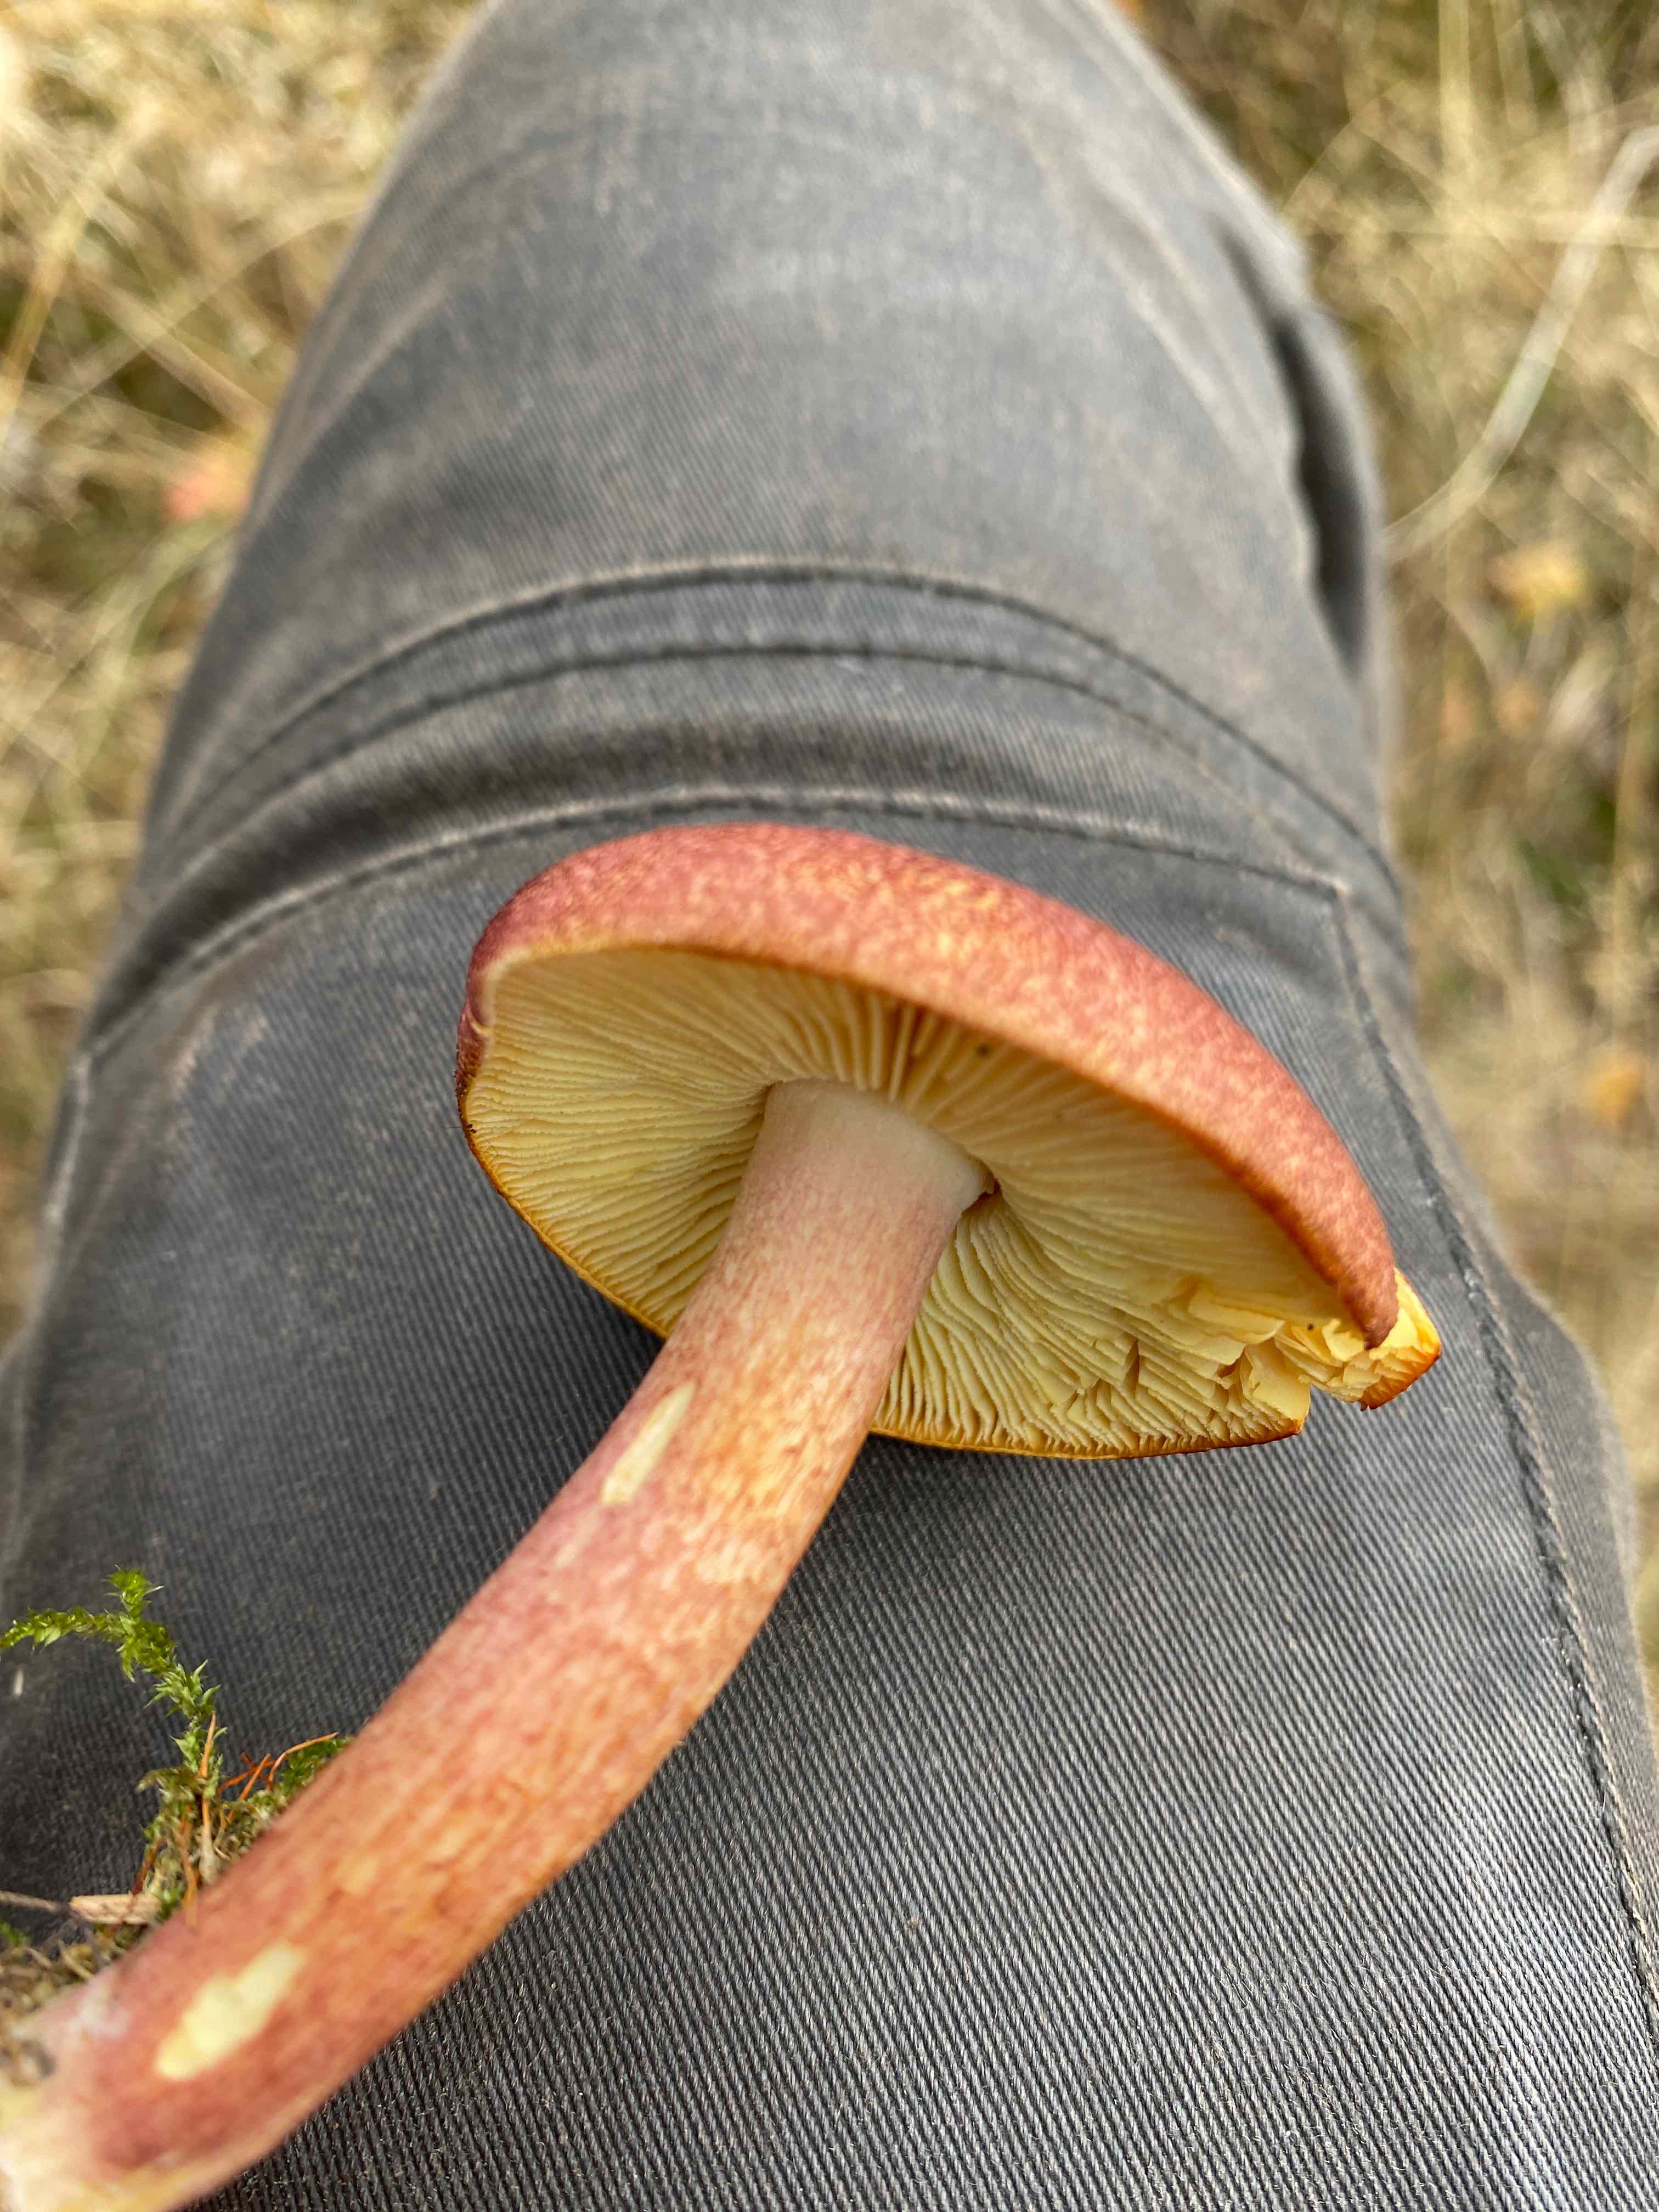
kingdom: Fungi
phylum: Basidiomycota
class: Agaricomycetes
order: Agaricales
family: Tricholomataceae
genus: Tricholomopsis
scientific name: Tricholomopsis rutilans
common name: purpur-væbnerhat
